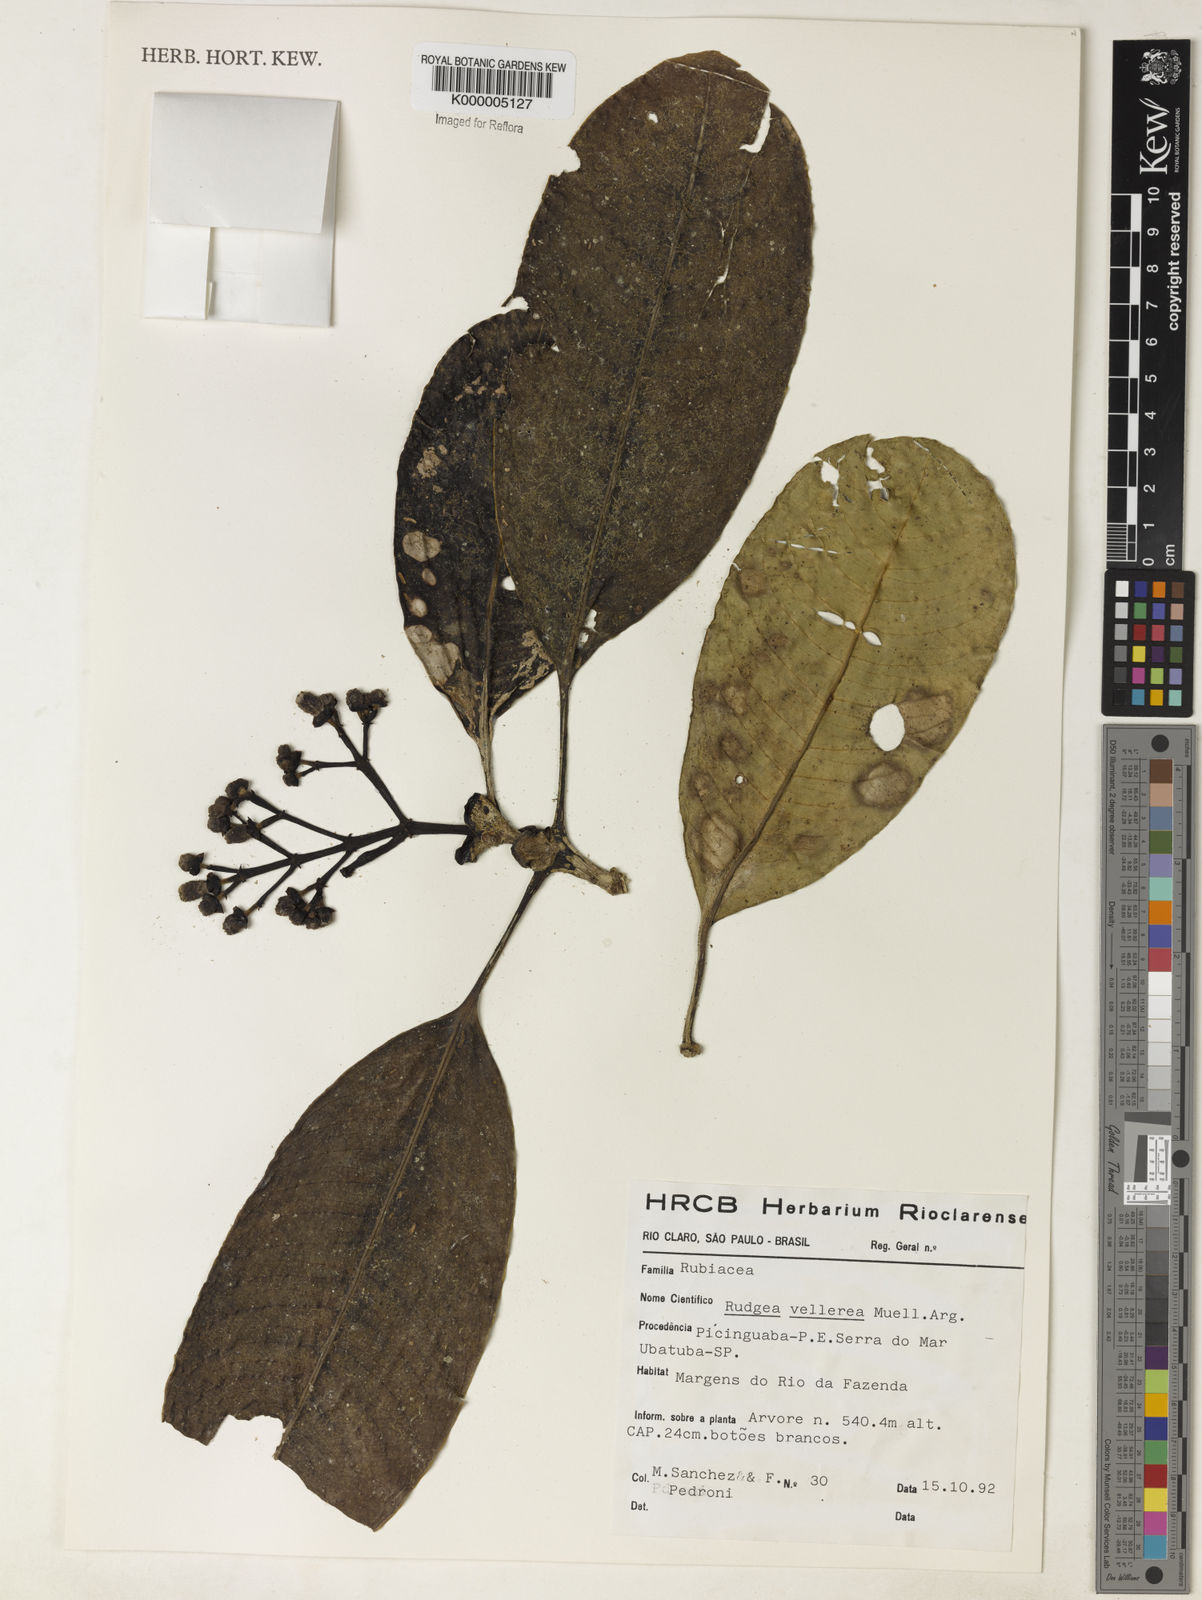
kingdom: Plantae
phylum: Tracheophyta
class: Magnoliopsida
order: Gentianales
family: Rubiaceae
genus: Rudgea
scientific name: Rudgea vellerea
